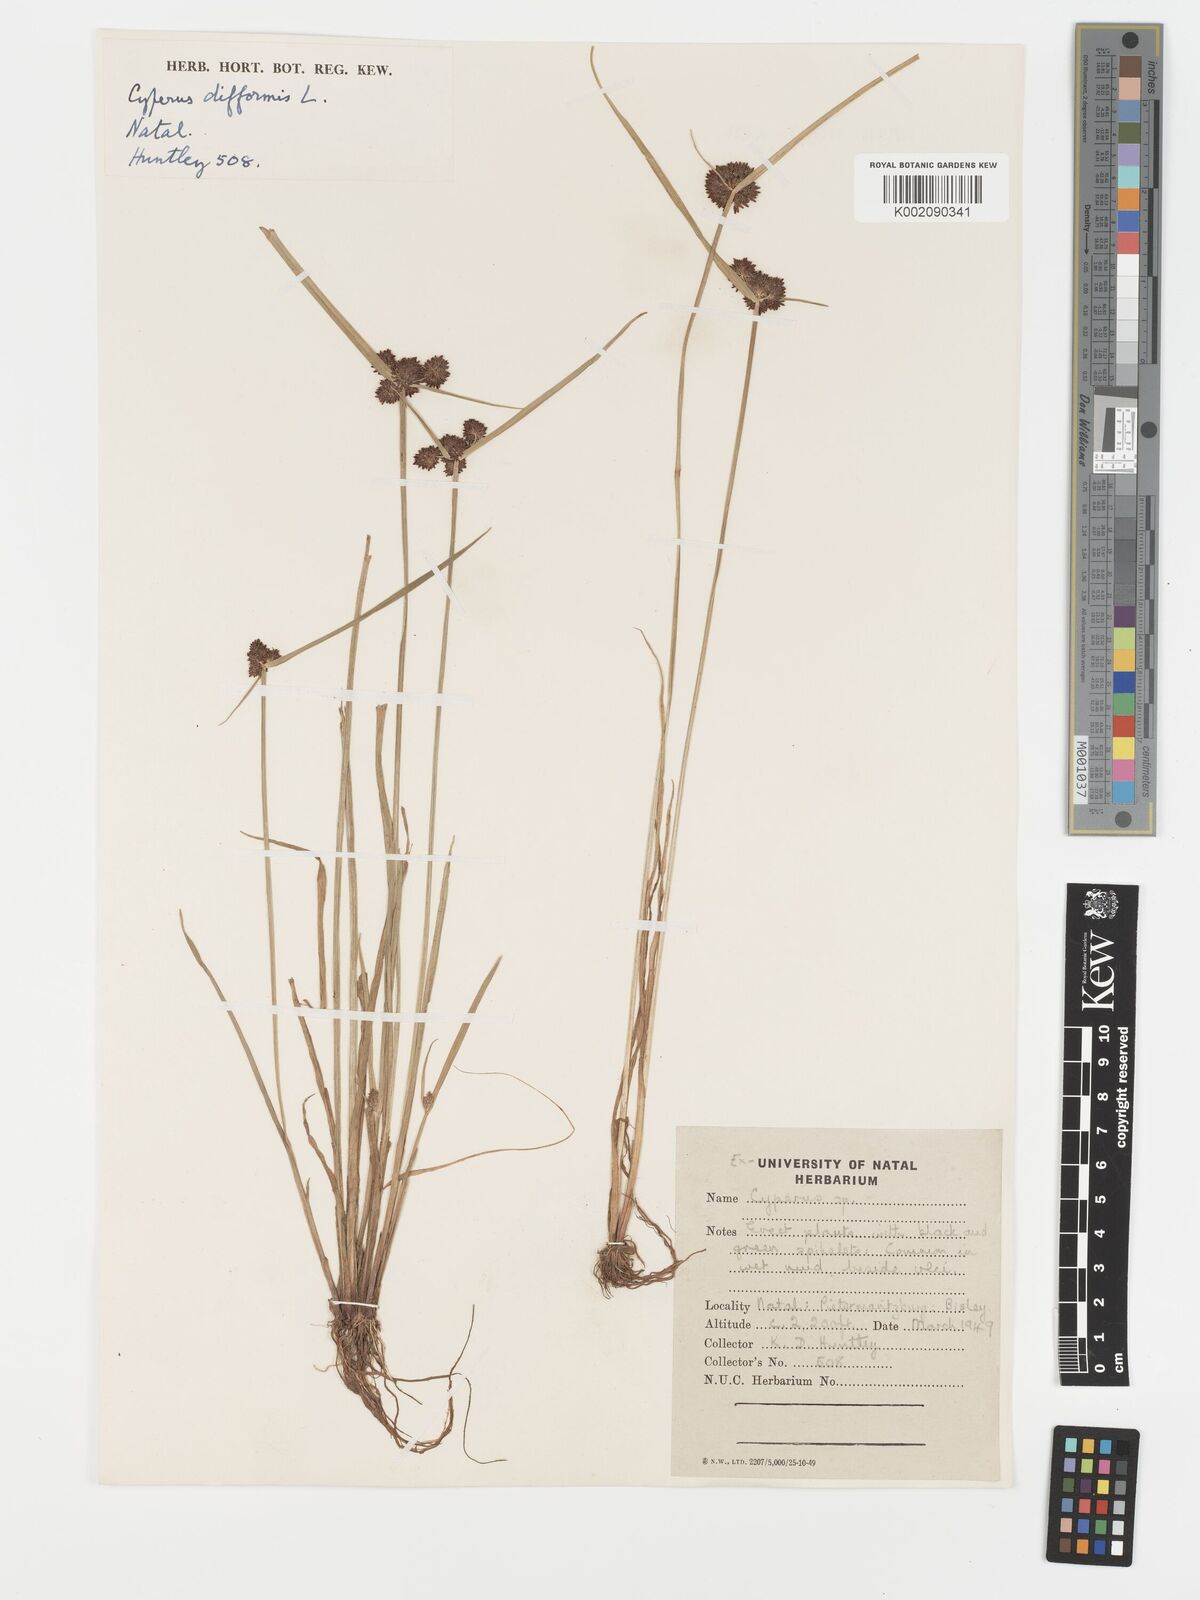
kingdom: Plantae
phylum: Tracheophyta
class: Liliopsida
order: Poales
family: Cyperaceae
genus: Cyperus
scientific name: Cyperus difformis
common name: Variable flatsedge
